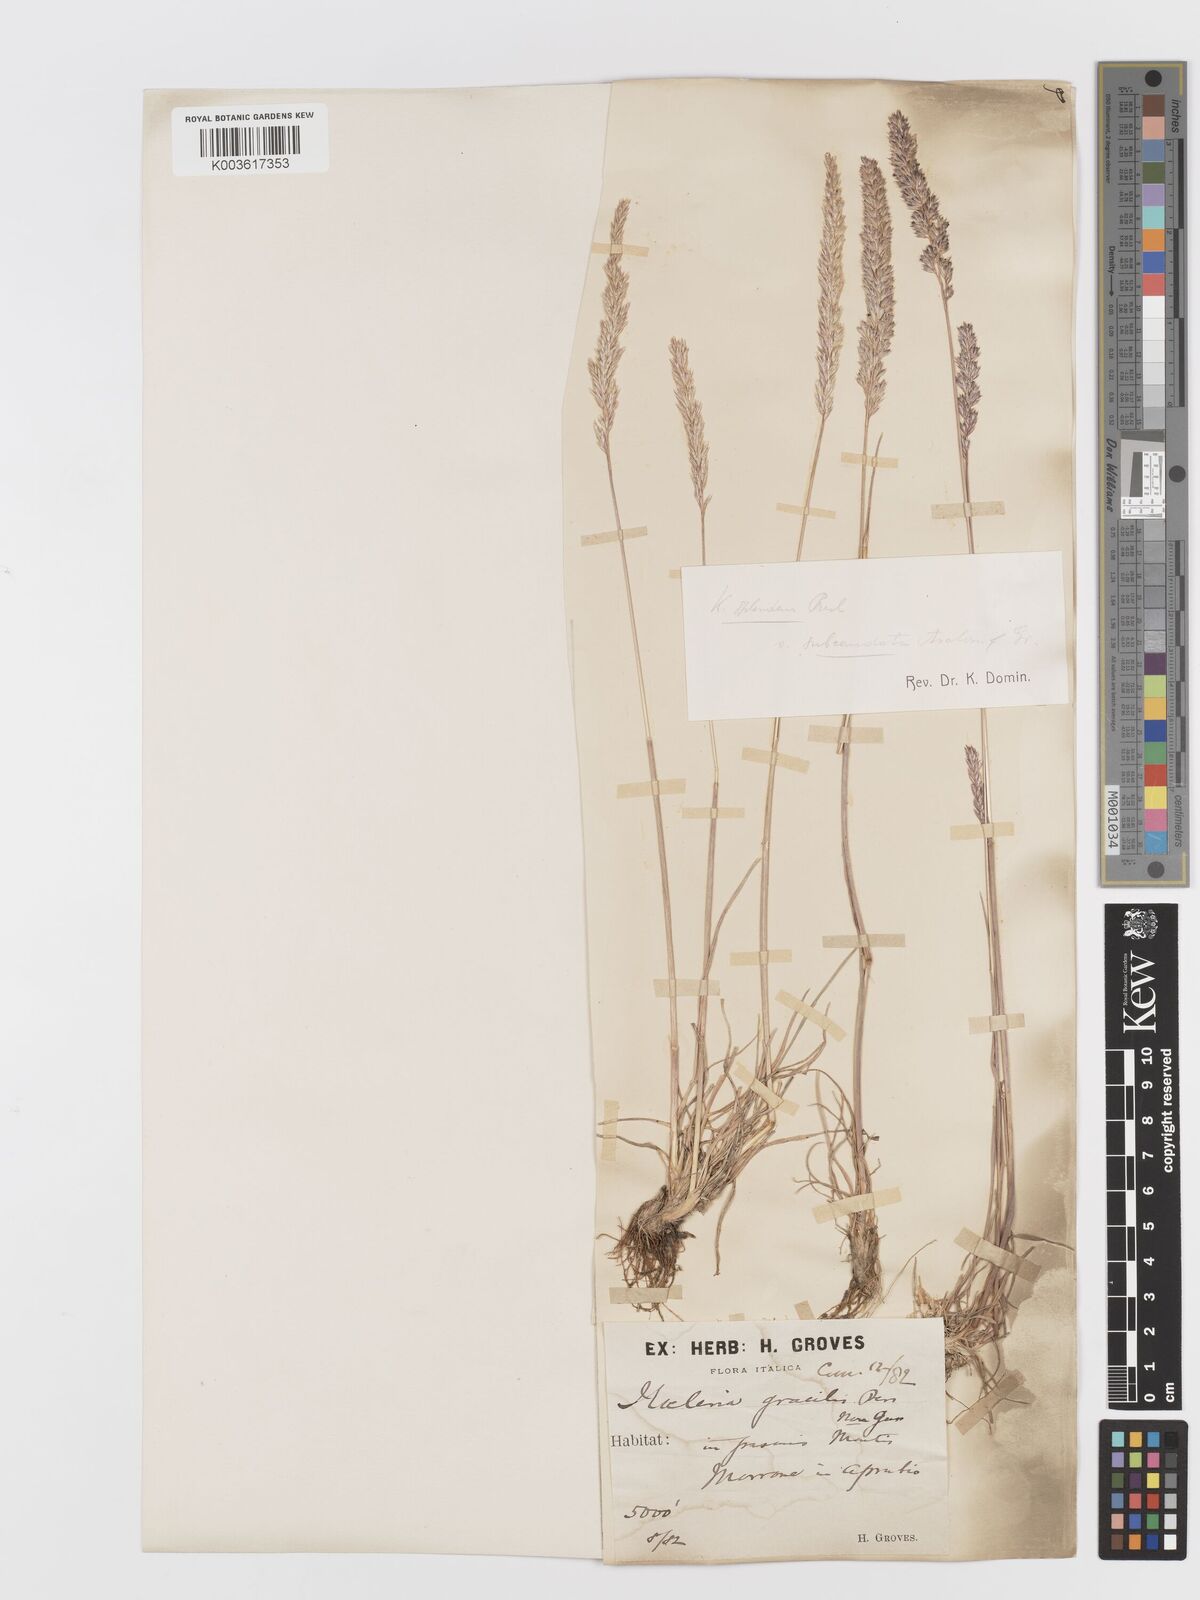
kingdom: Plantae
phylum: Tracheophyta
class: Liliopsida
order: Poales
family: Poaceae
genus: Koeleria
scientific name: Koeleria splendens
